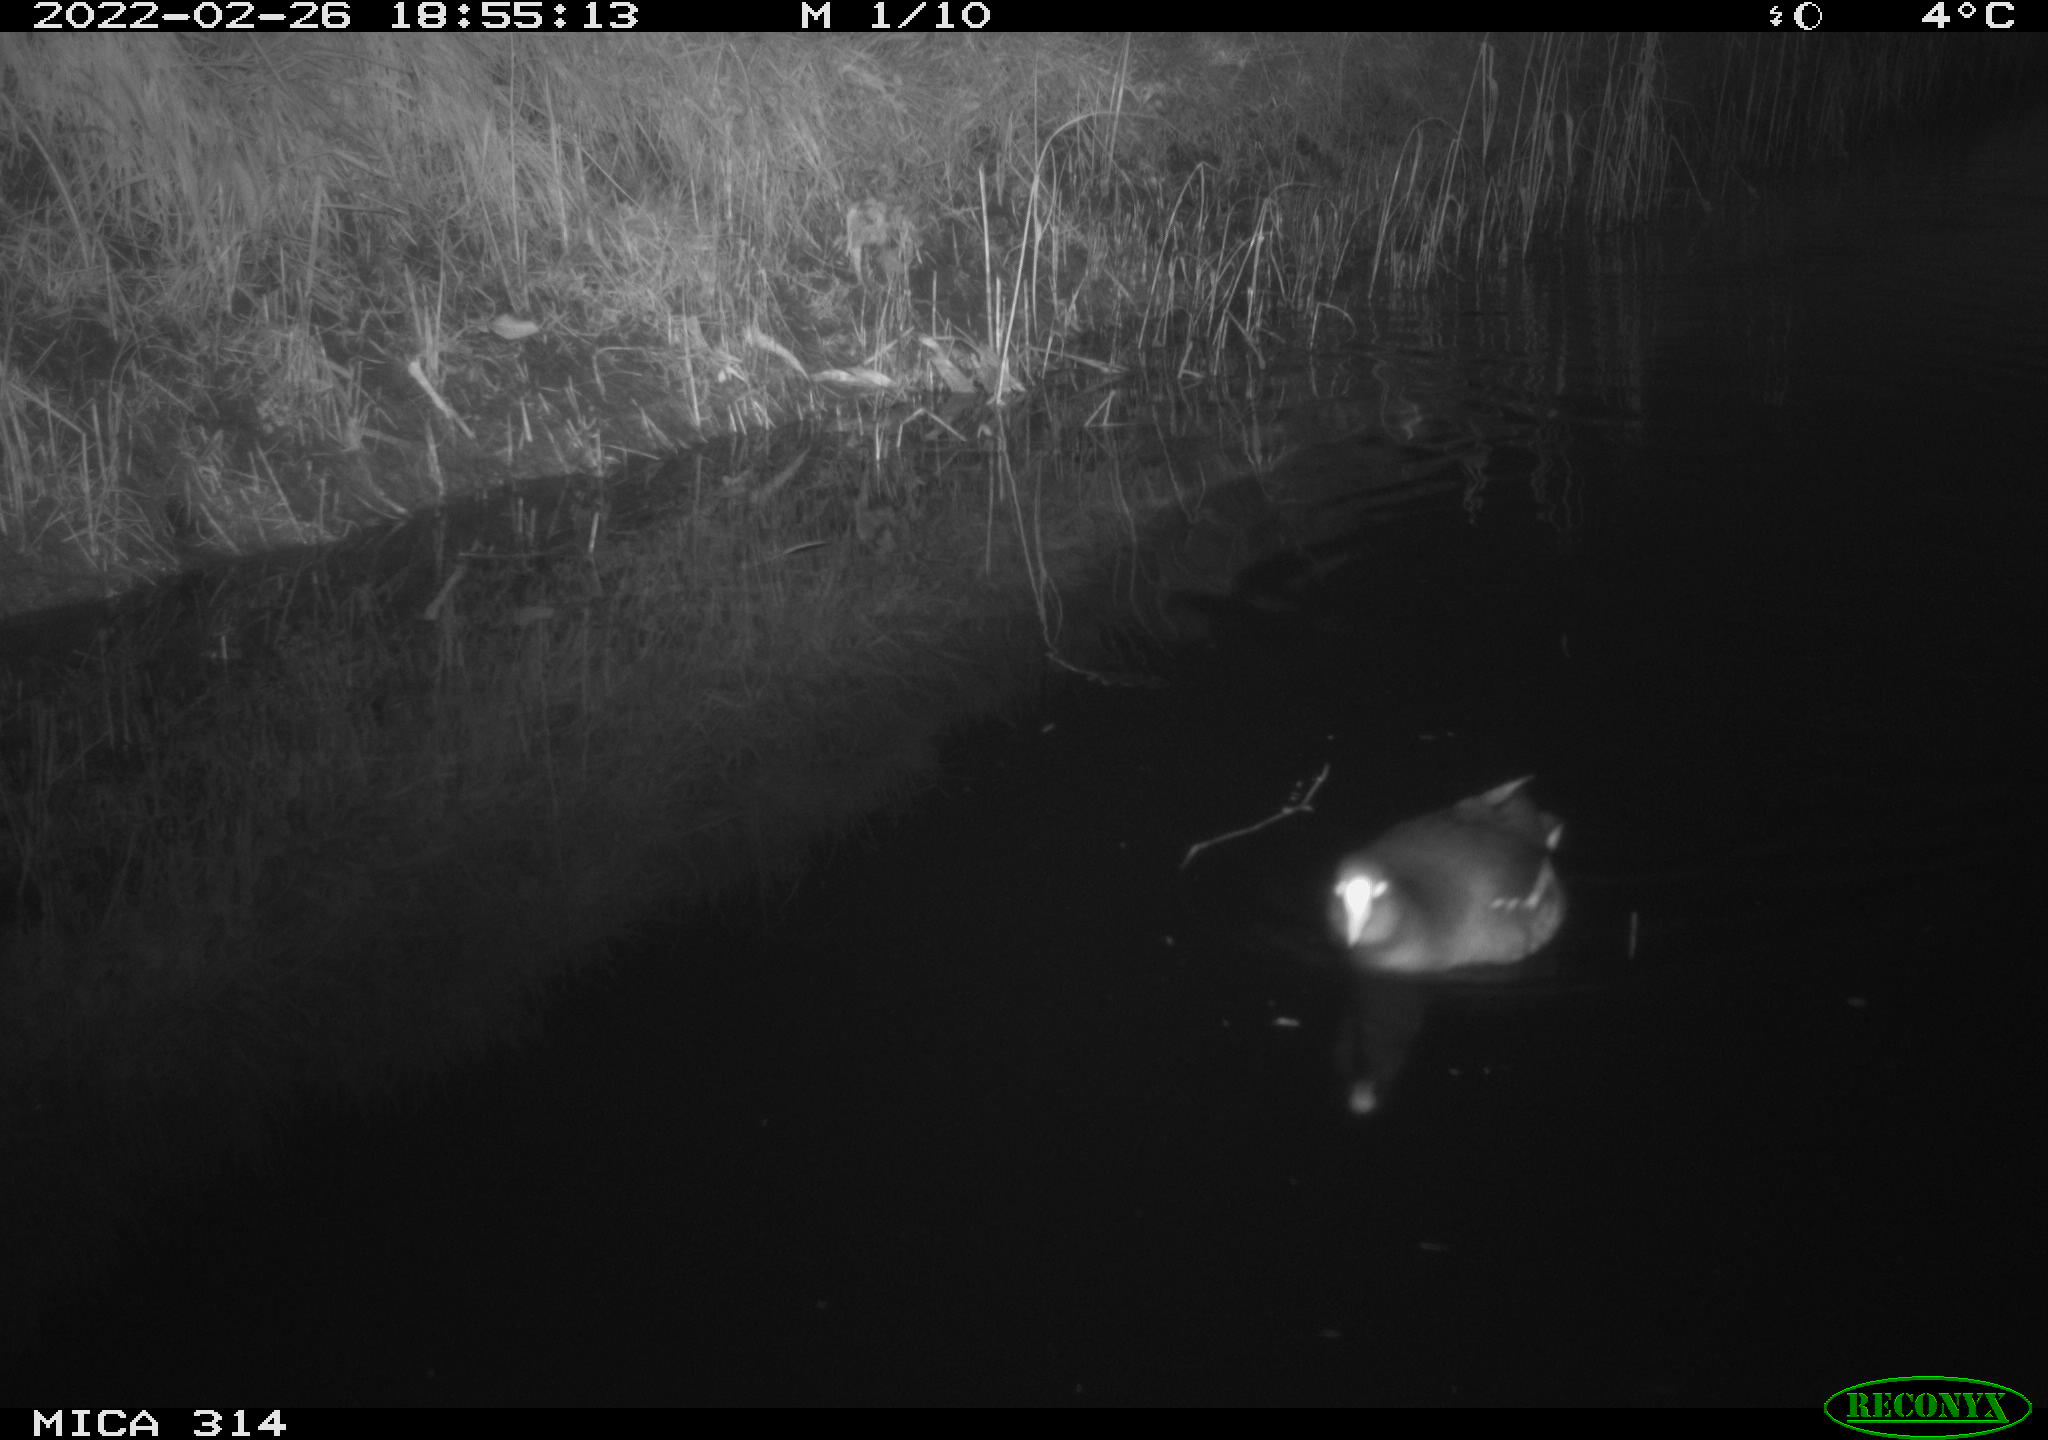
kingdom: Animalia
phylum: Chordata
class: Aves
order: Gruiformes
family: Rallidae
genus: Gallinula
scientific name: Gallinula chloropus
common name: Common moorhen
